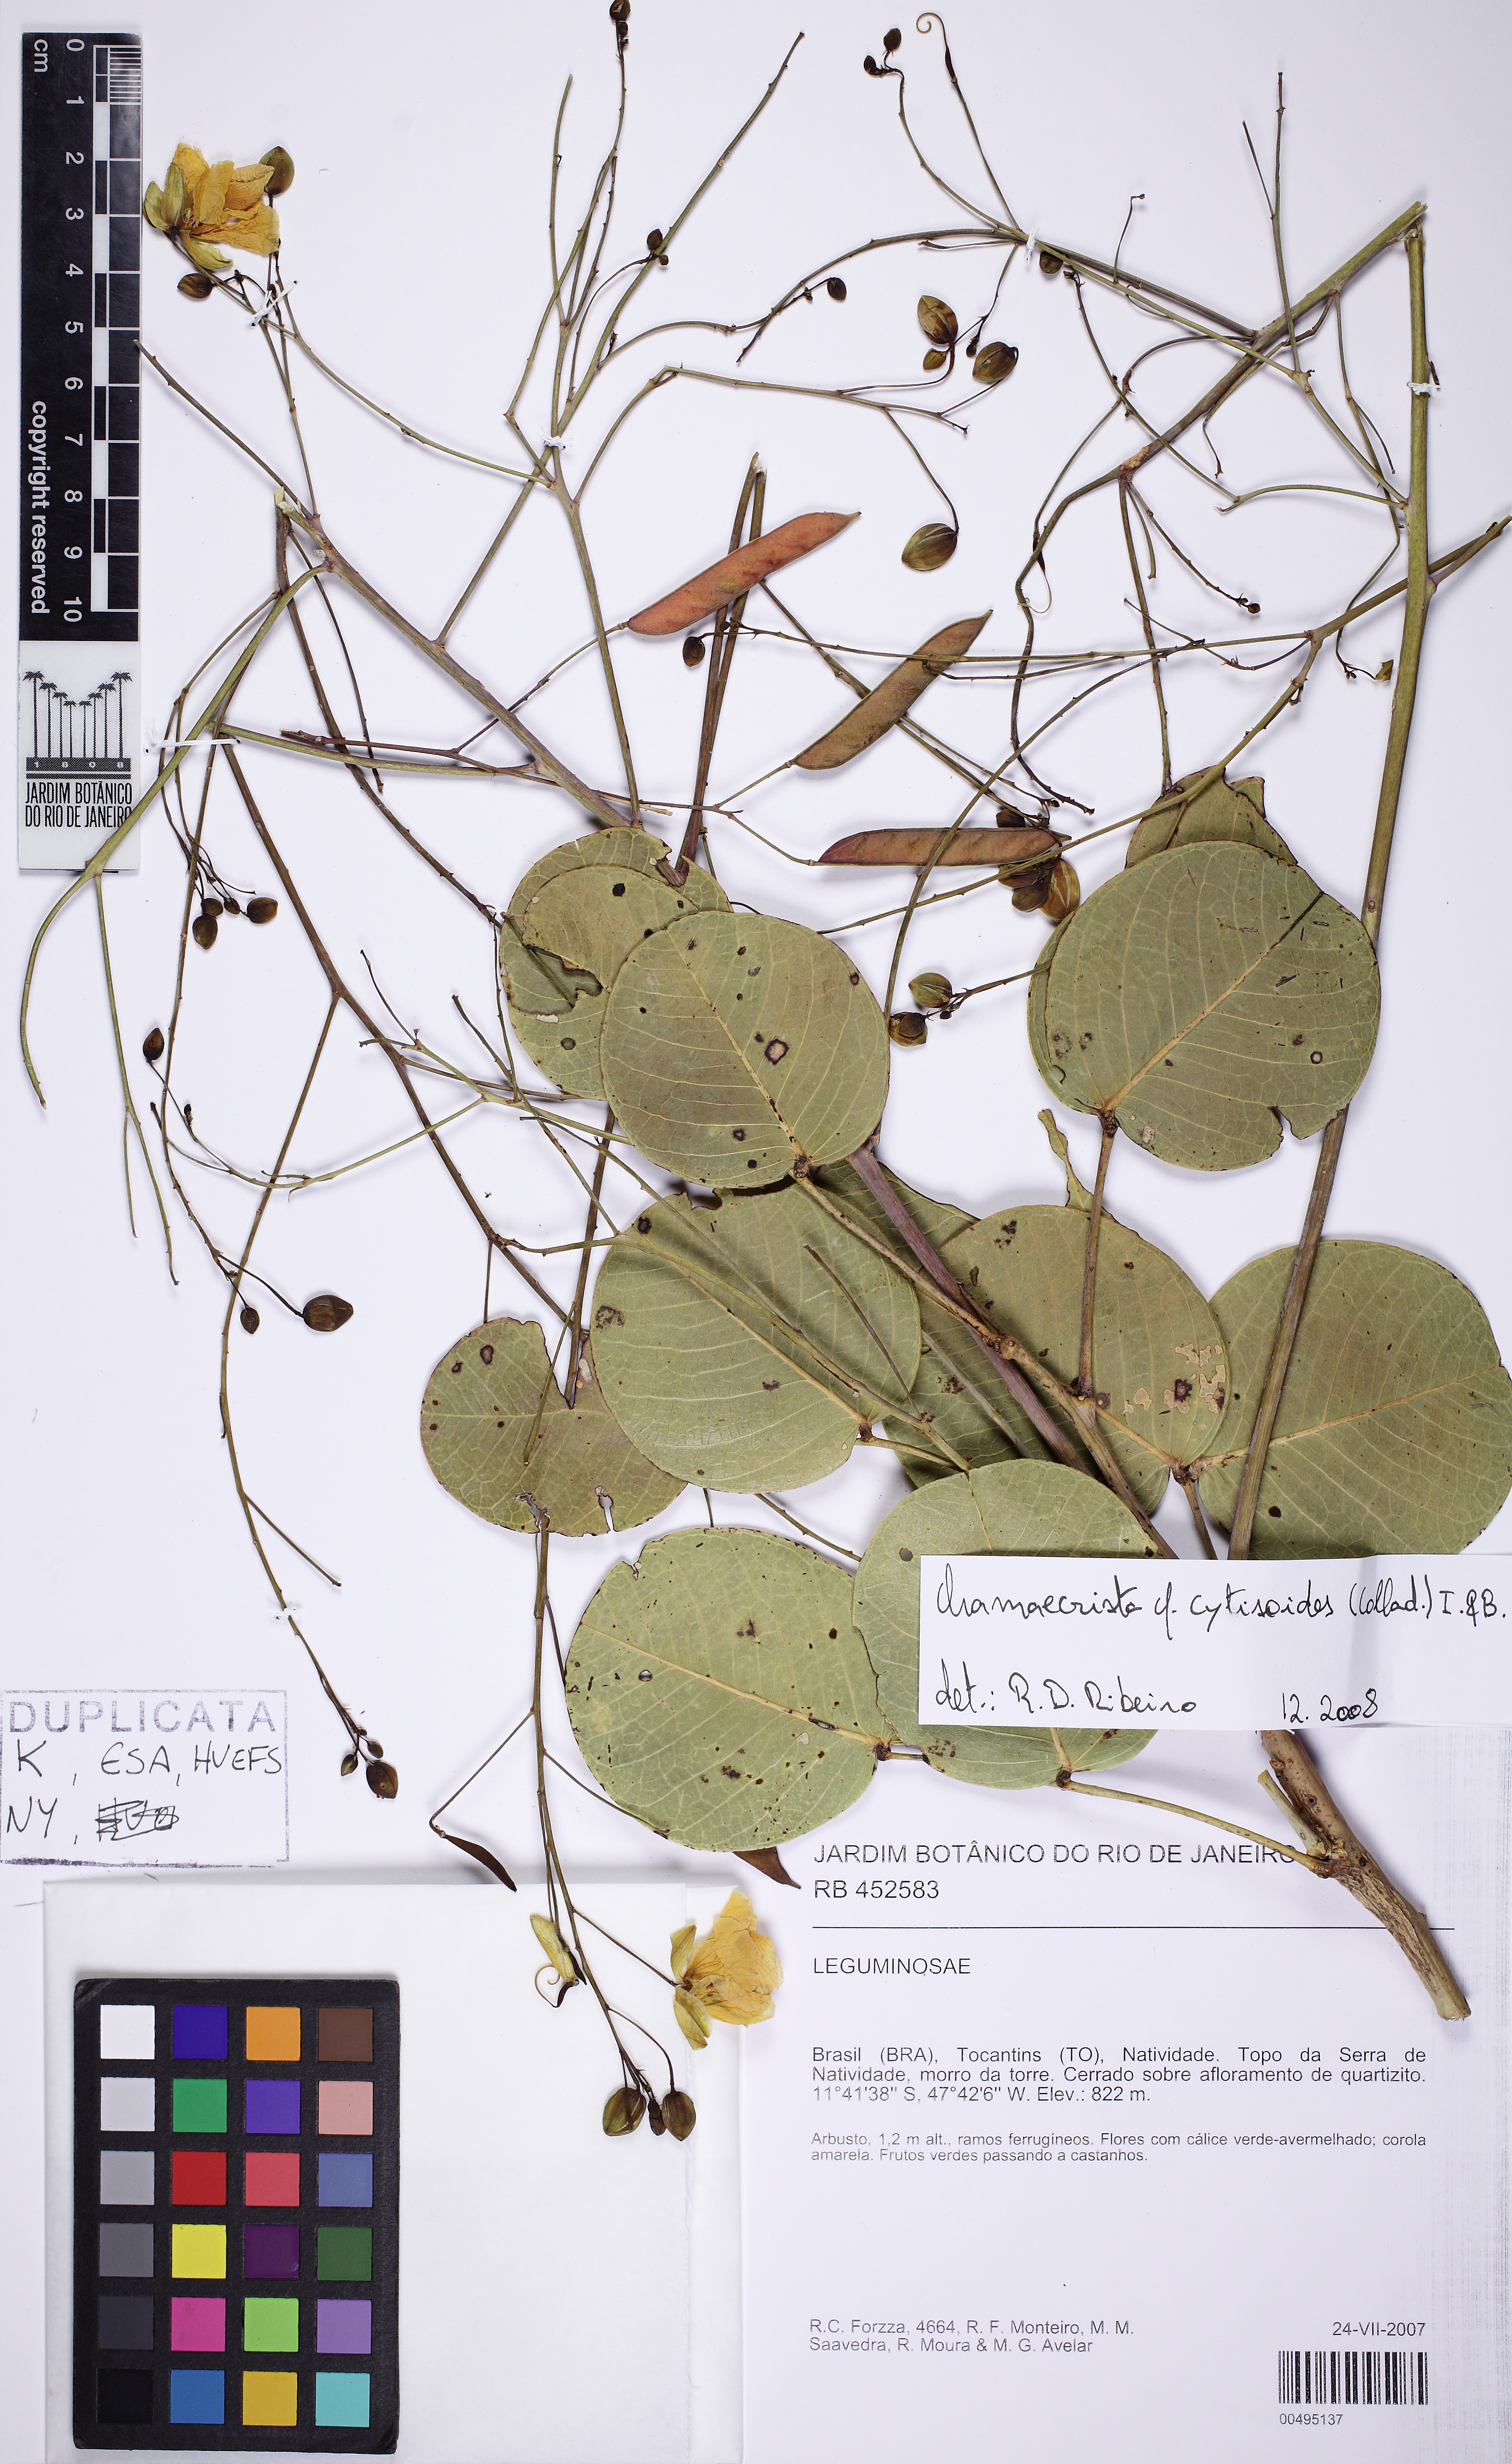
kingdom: Plantae
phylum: Tracheophyta
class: Magnoliopsida
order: Fabales
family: Fabaceae
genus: Chamaecrista
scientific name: Chamaecrista cytisoides
